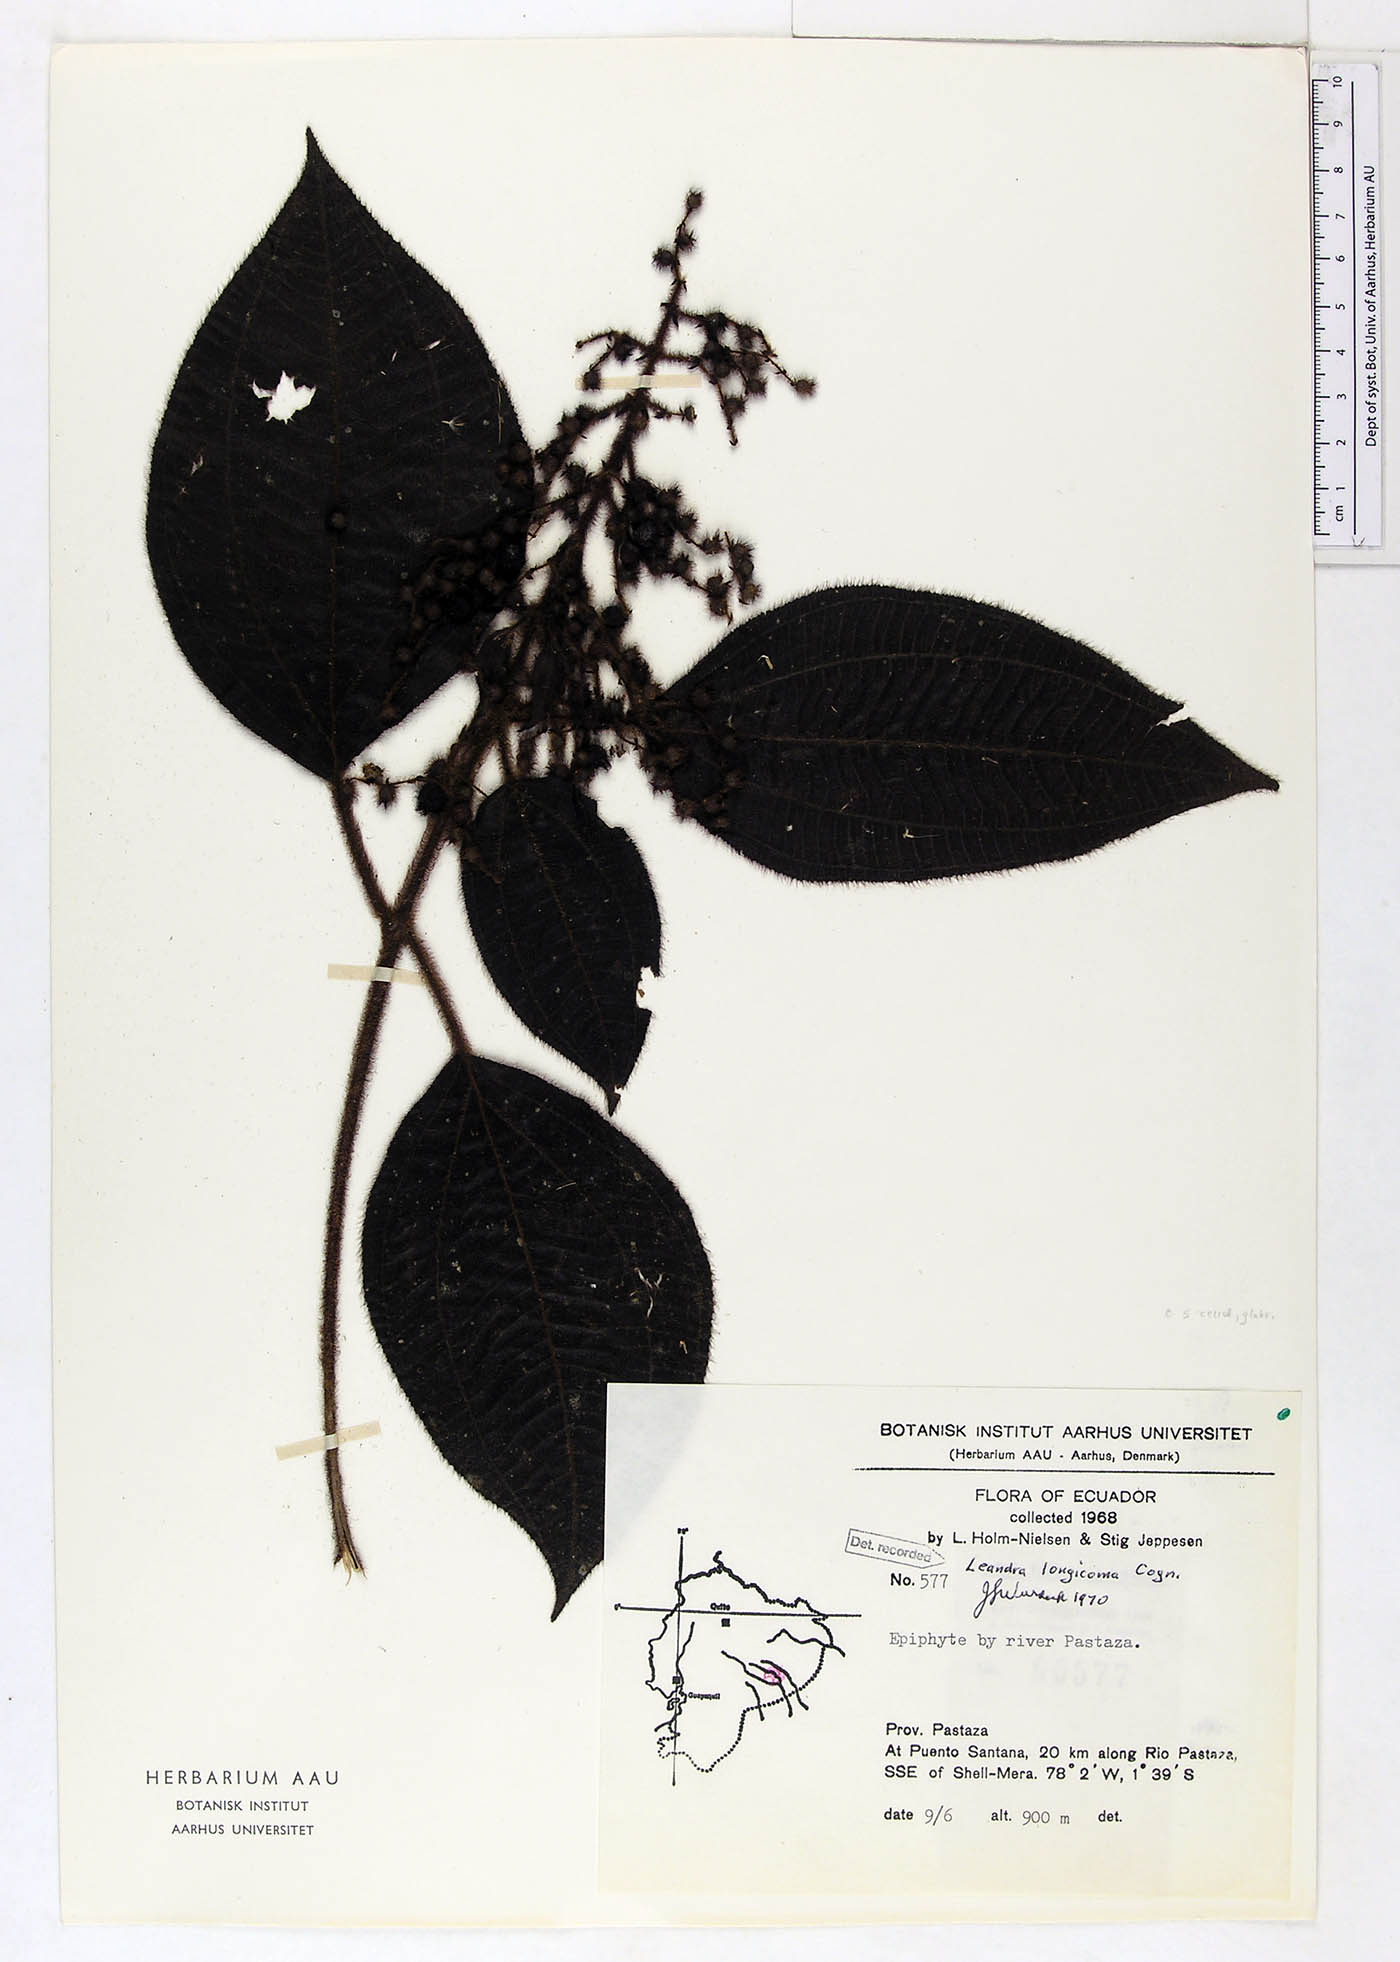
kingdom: Plantae
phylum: Tracheophyta
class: Magnoliopsida
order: Myrtales
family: Melastomataceae
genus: Miconia
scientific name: Miconia longicoma
